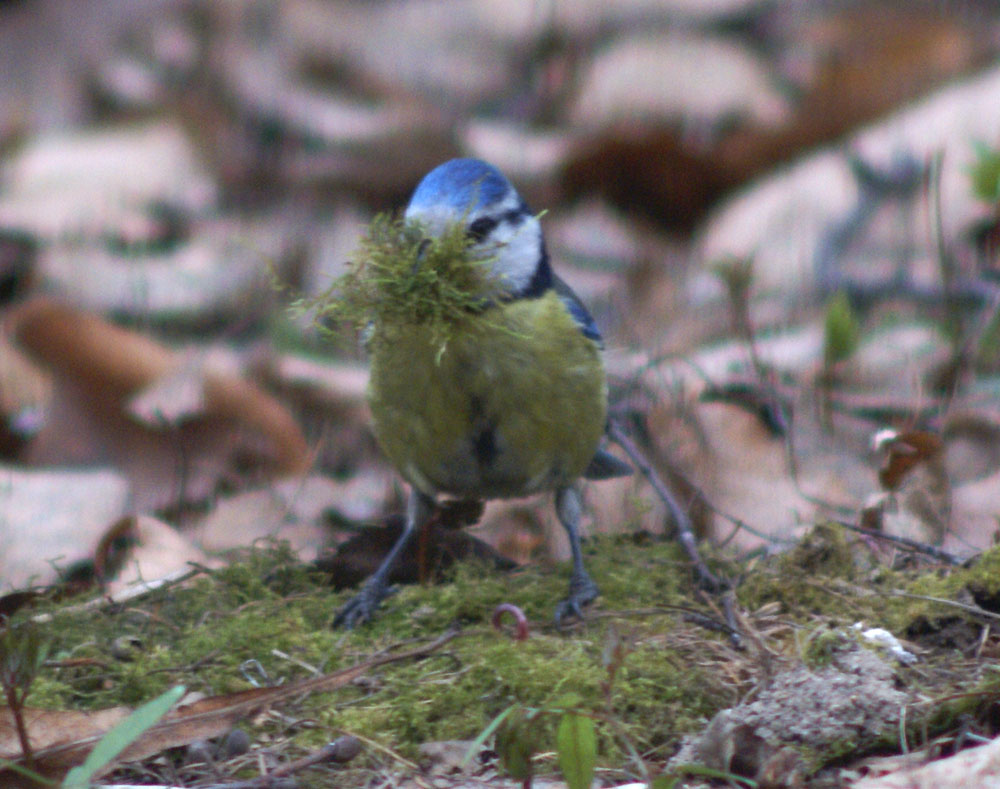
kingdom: Animalia
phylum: Chordata
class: Aves
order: Passeriformes
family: Paridae
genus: Cyanistes
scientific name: Cyanistes caeruleus
